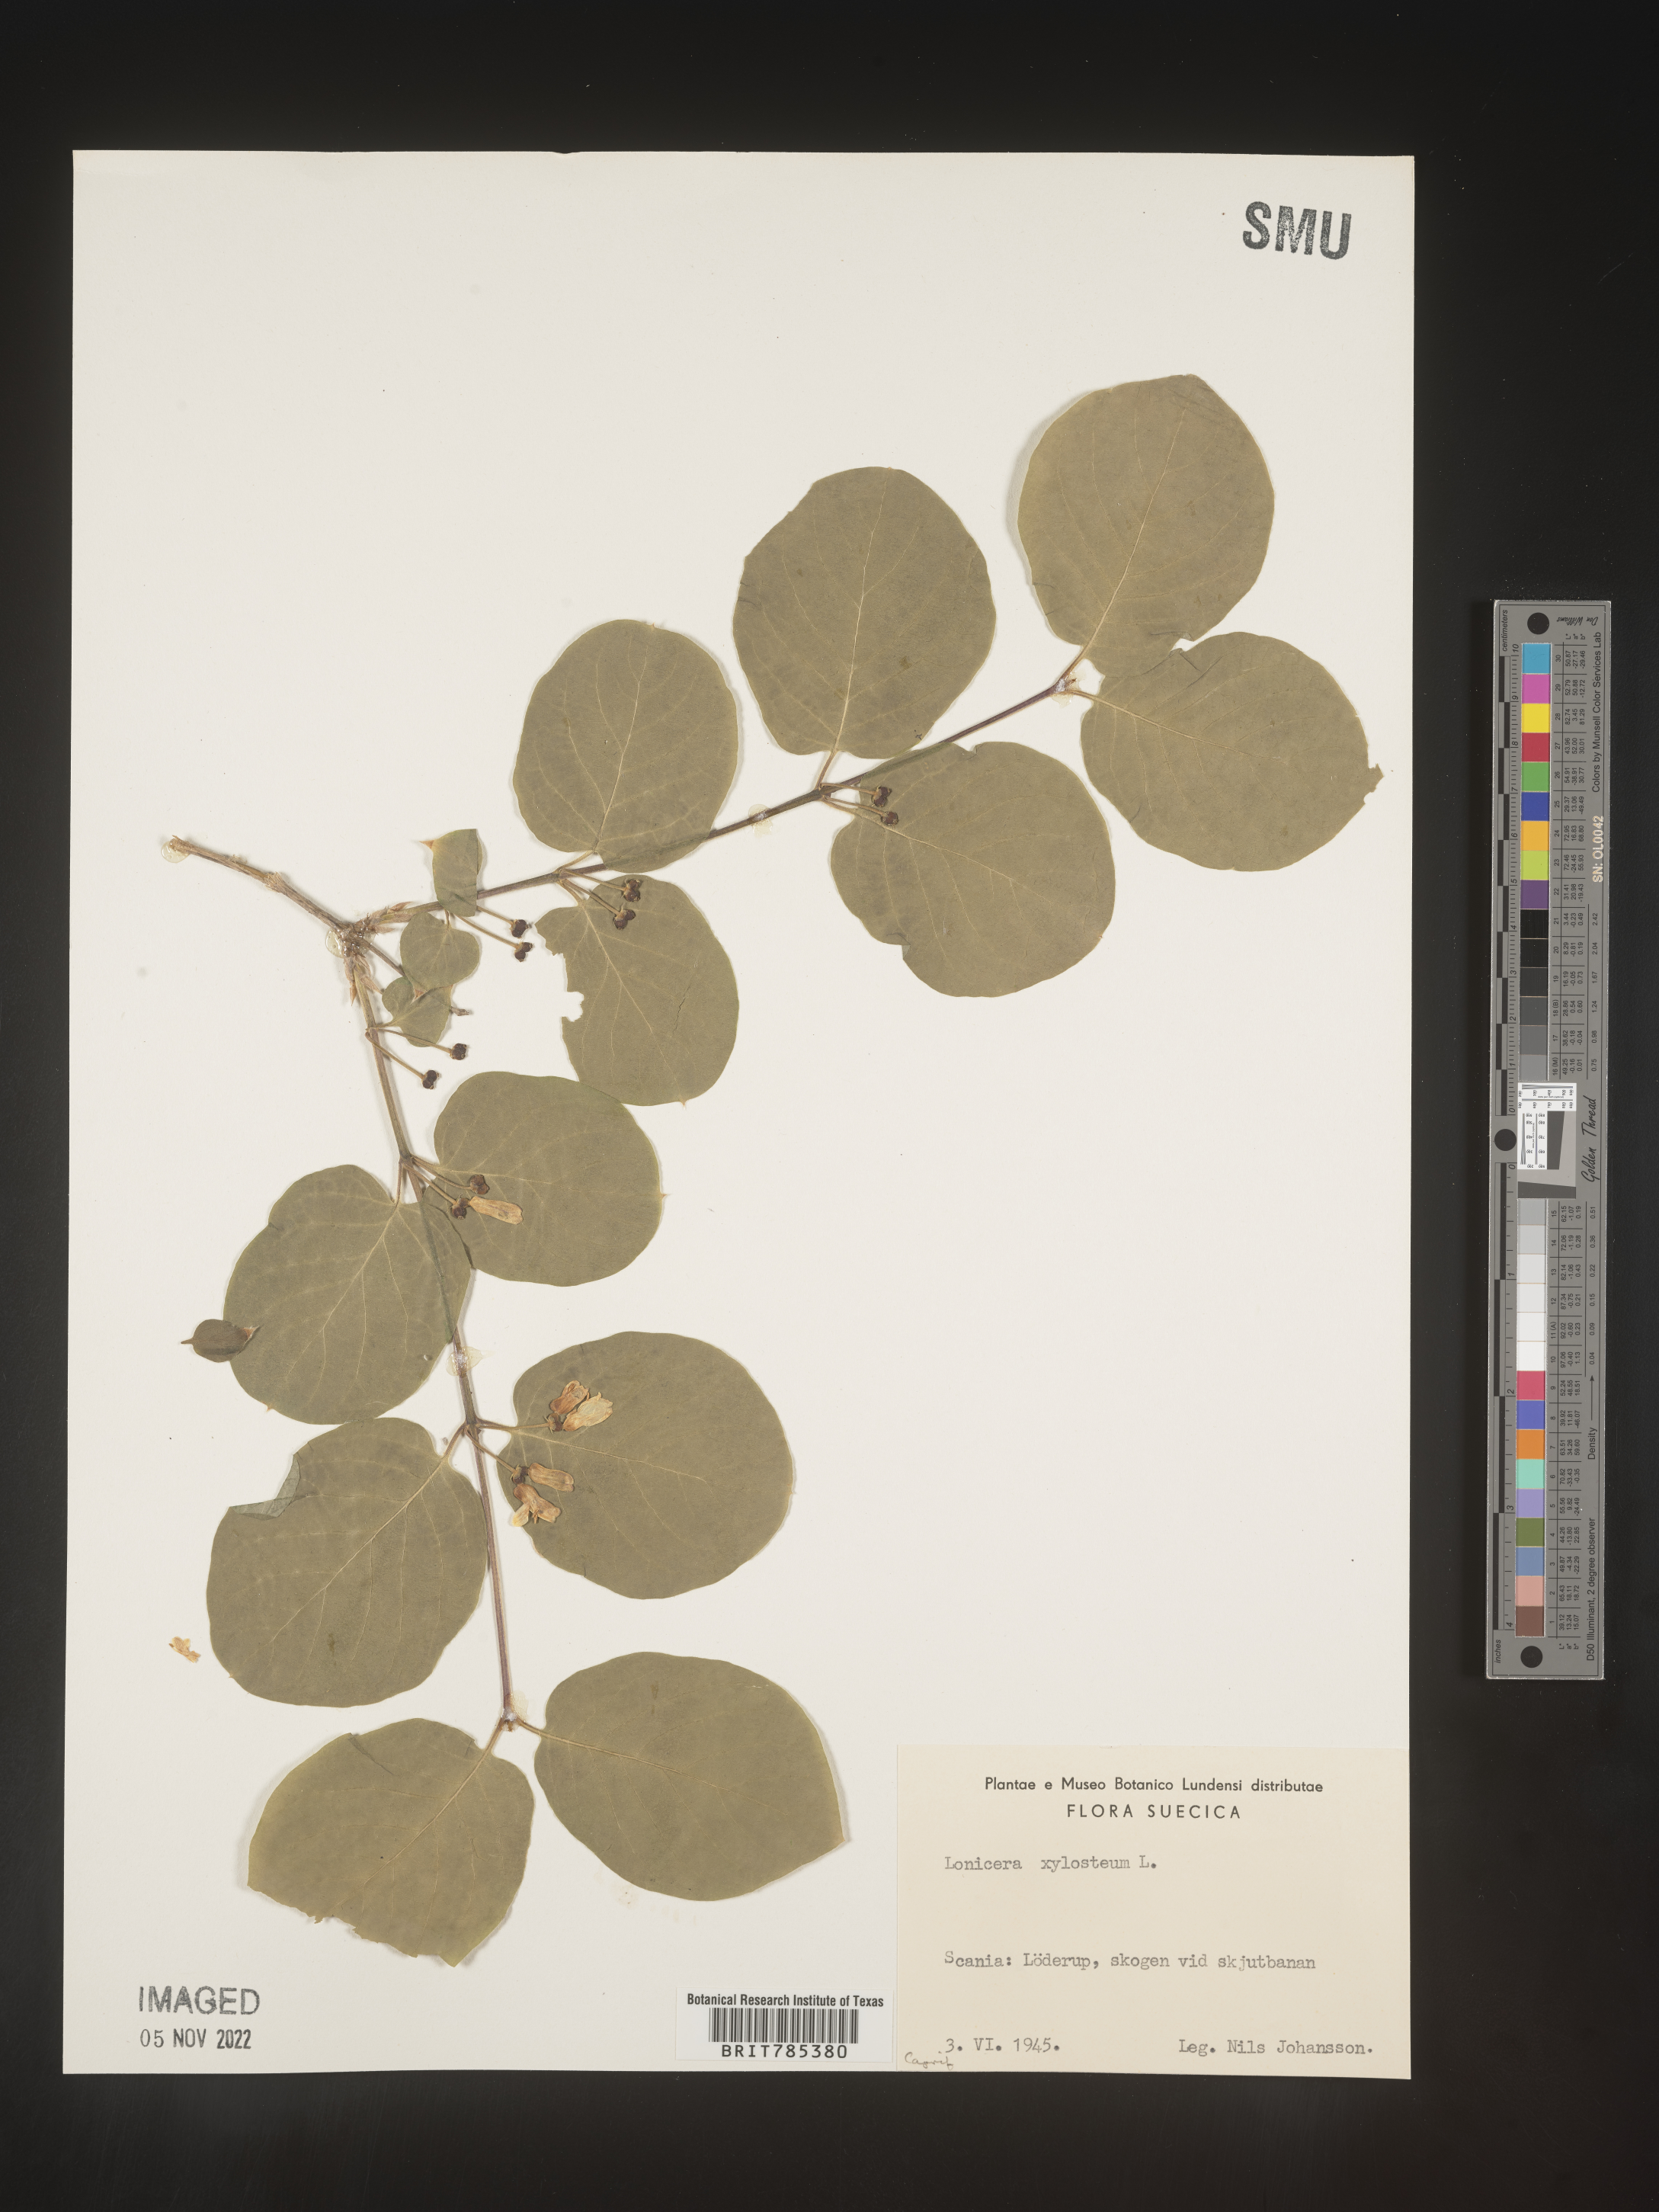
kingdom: Plantae
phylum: Tracheophyta
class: Magnoliopsida
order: Dipsacales
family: Caprifoliaceae
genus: Lonicera
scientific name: Lonicera
